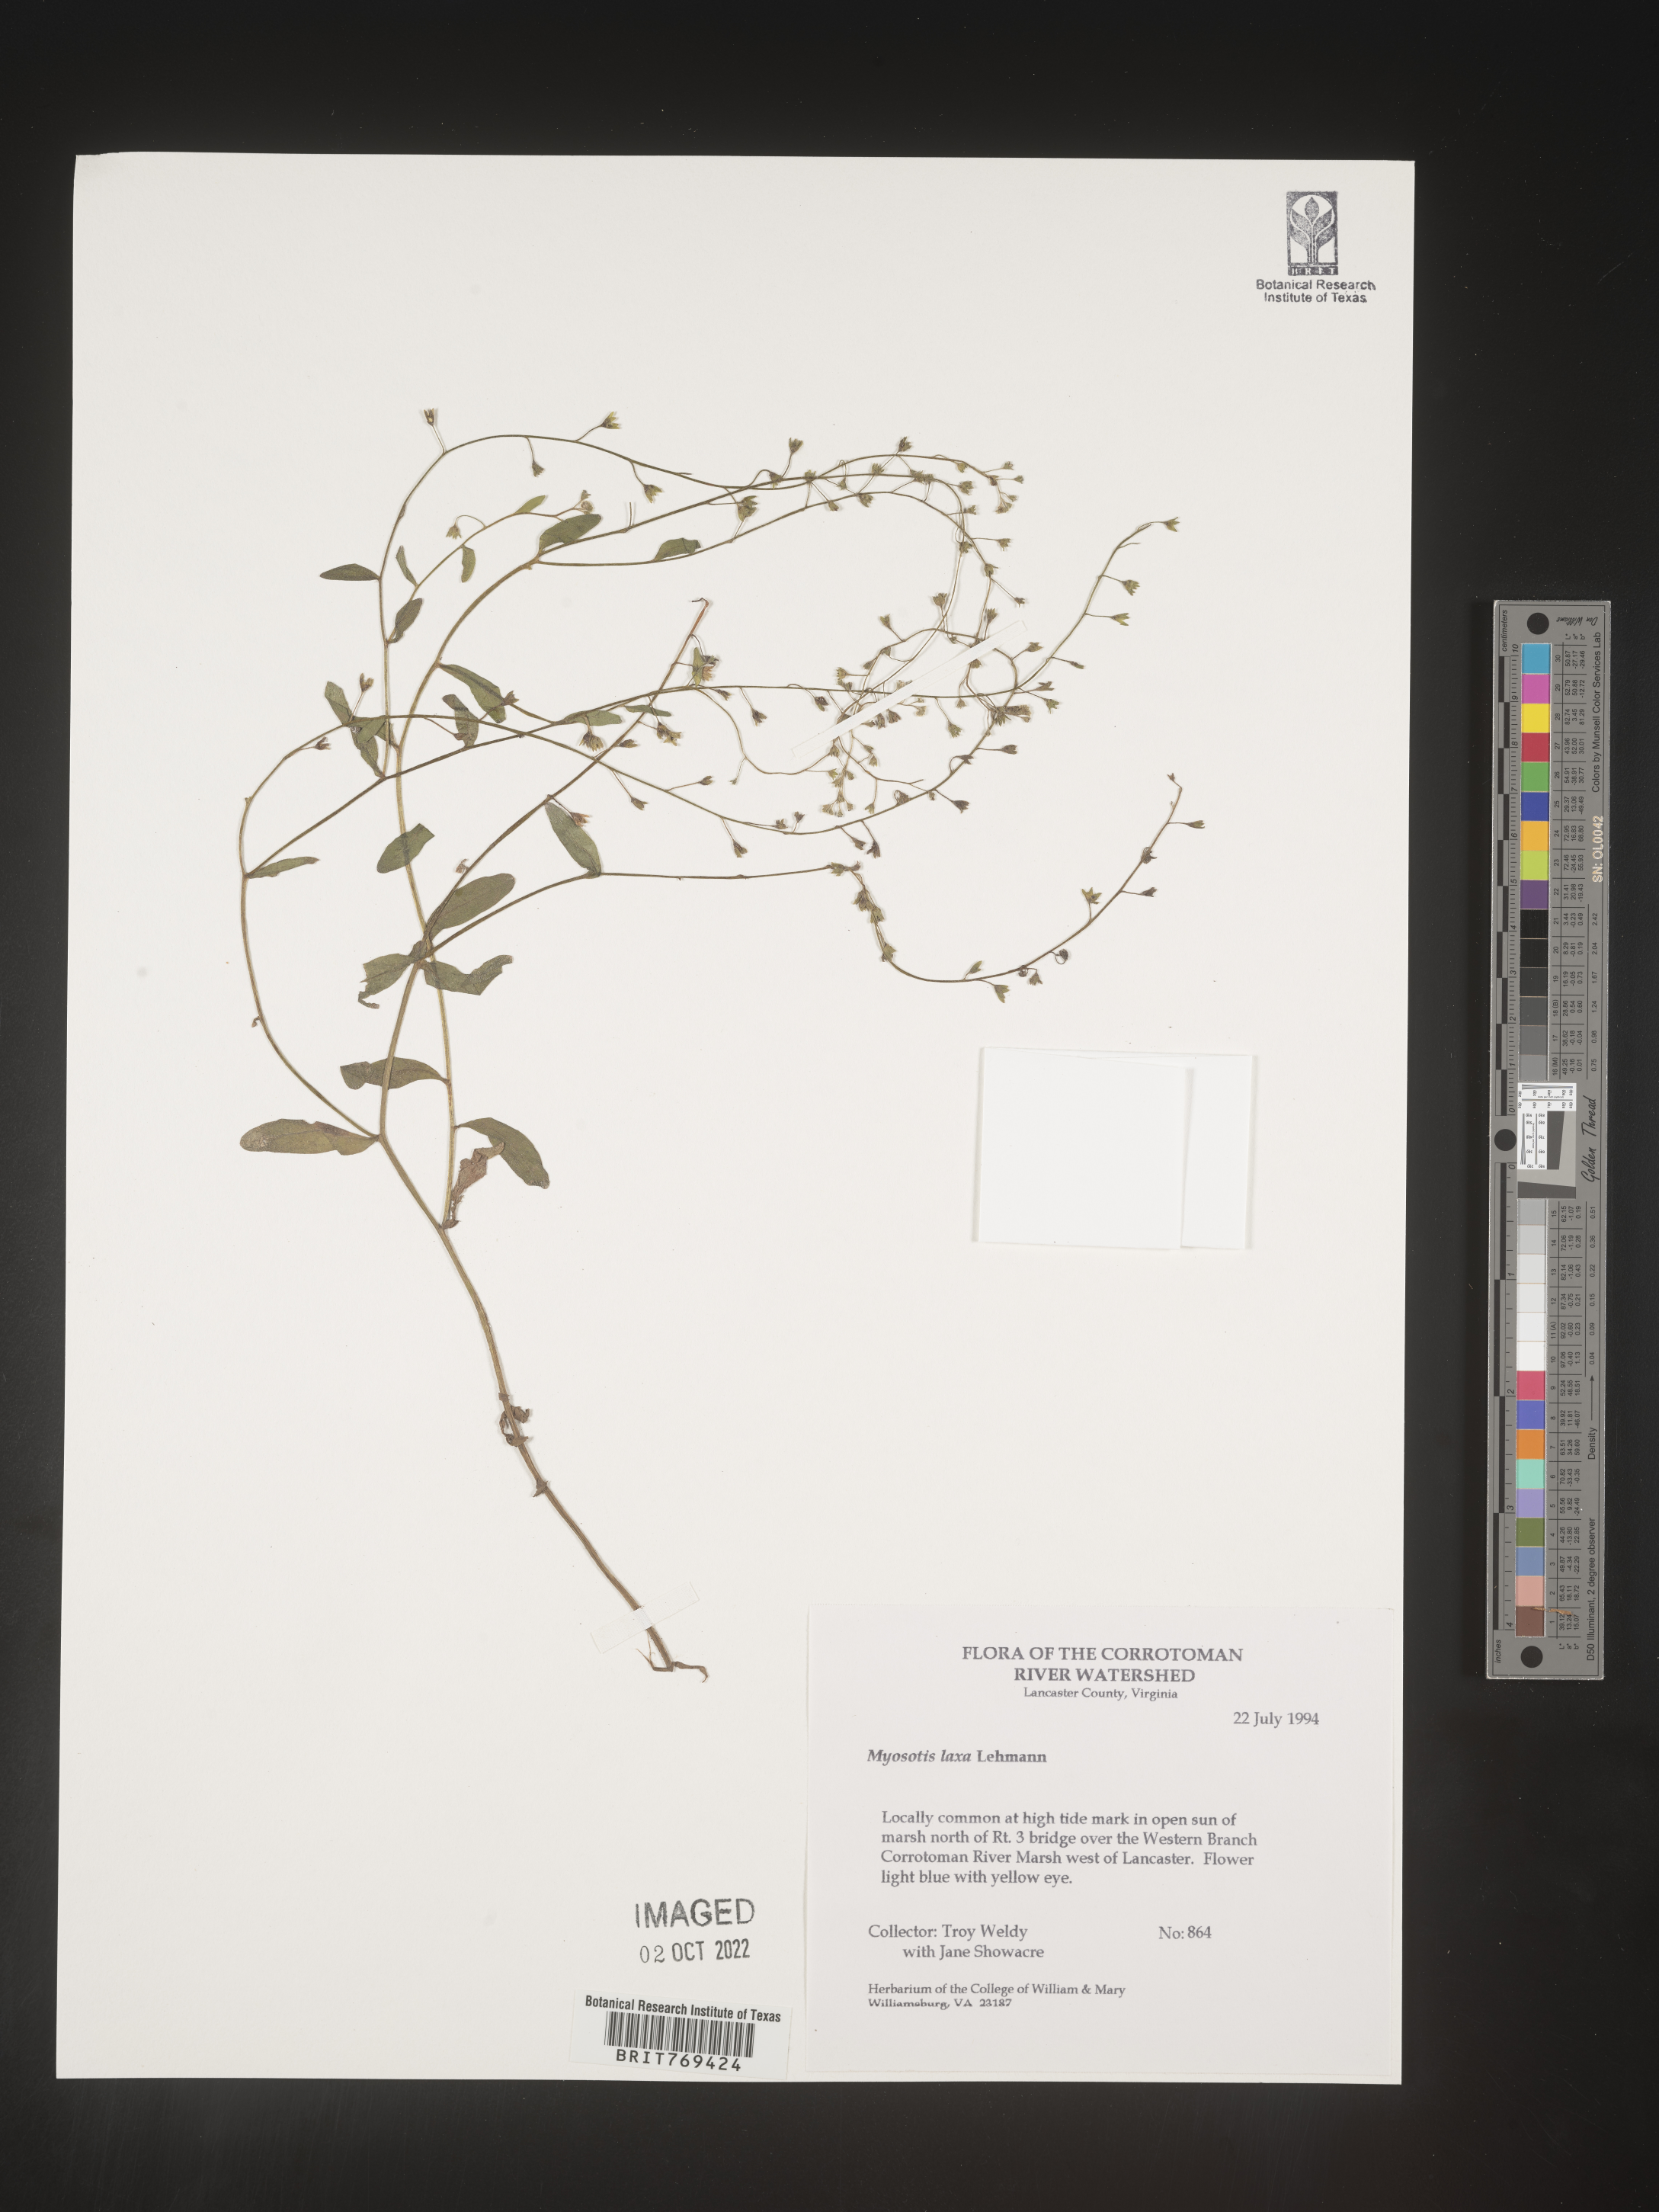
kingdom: Plantae
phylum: Tracheophyta
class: Magnoliopsida
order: Boraginales
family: Boraginaceae
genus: Myosotis
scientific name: Myosotis
